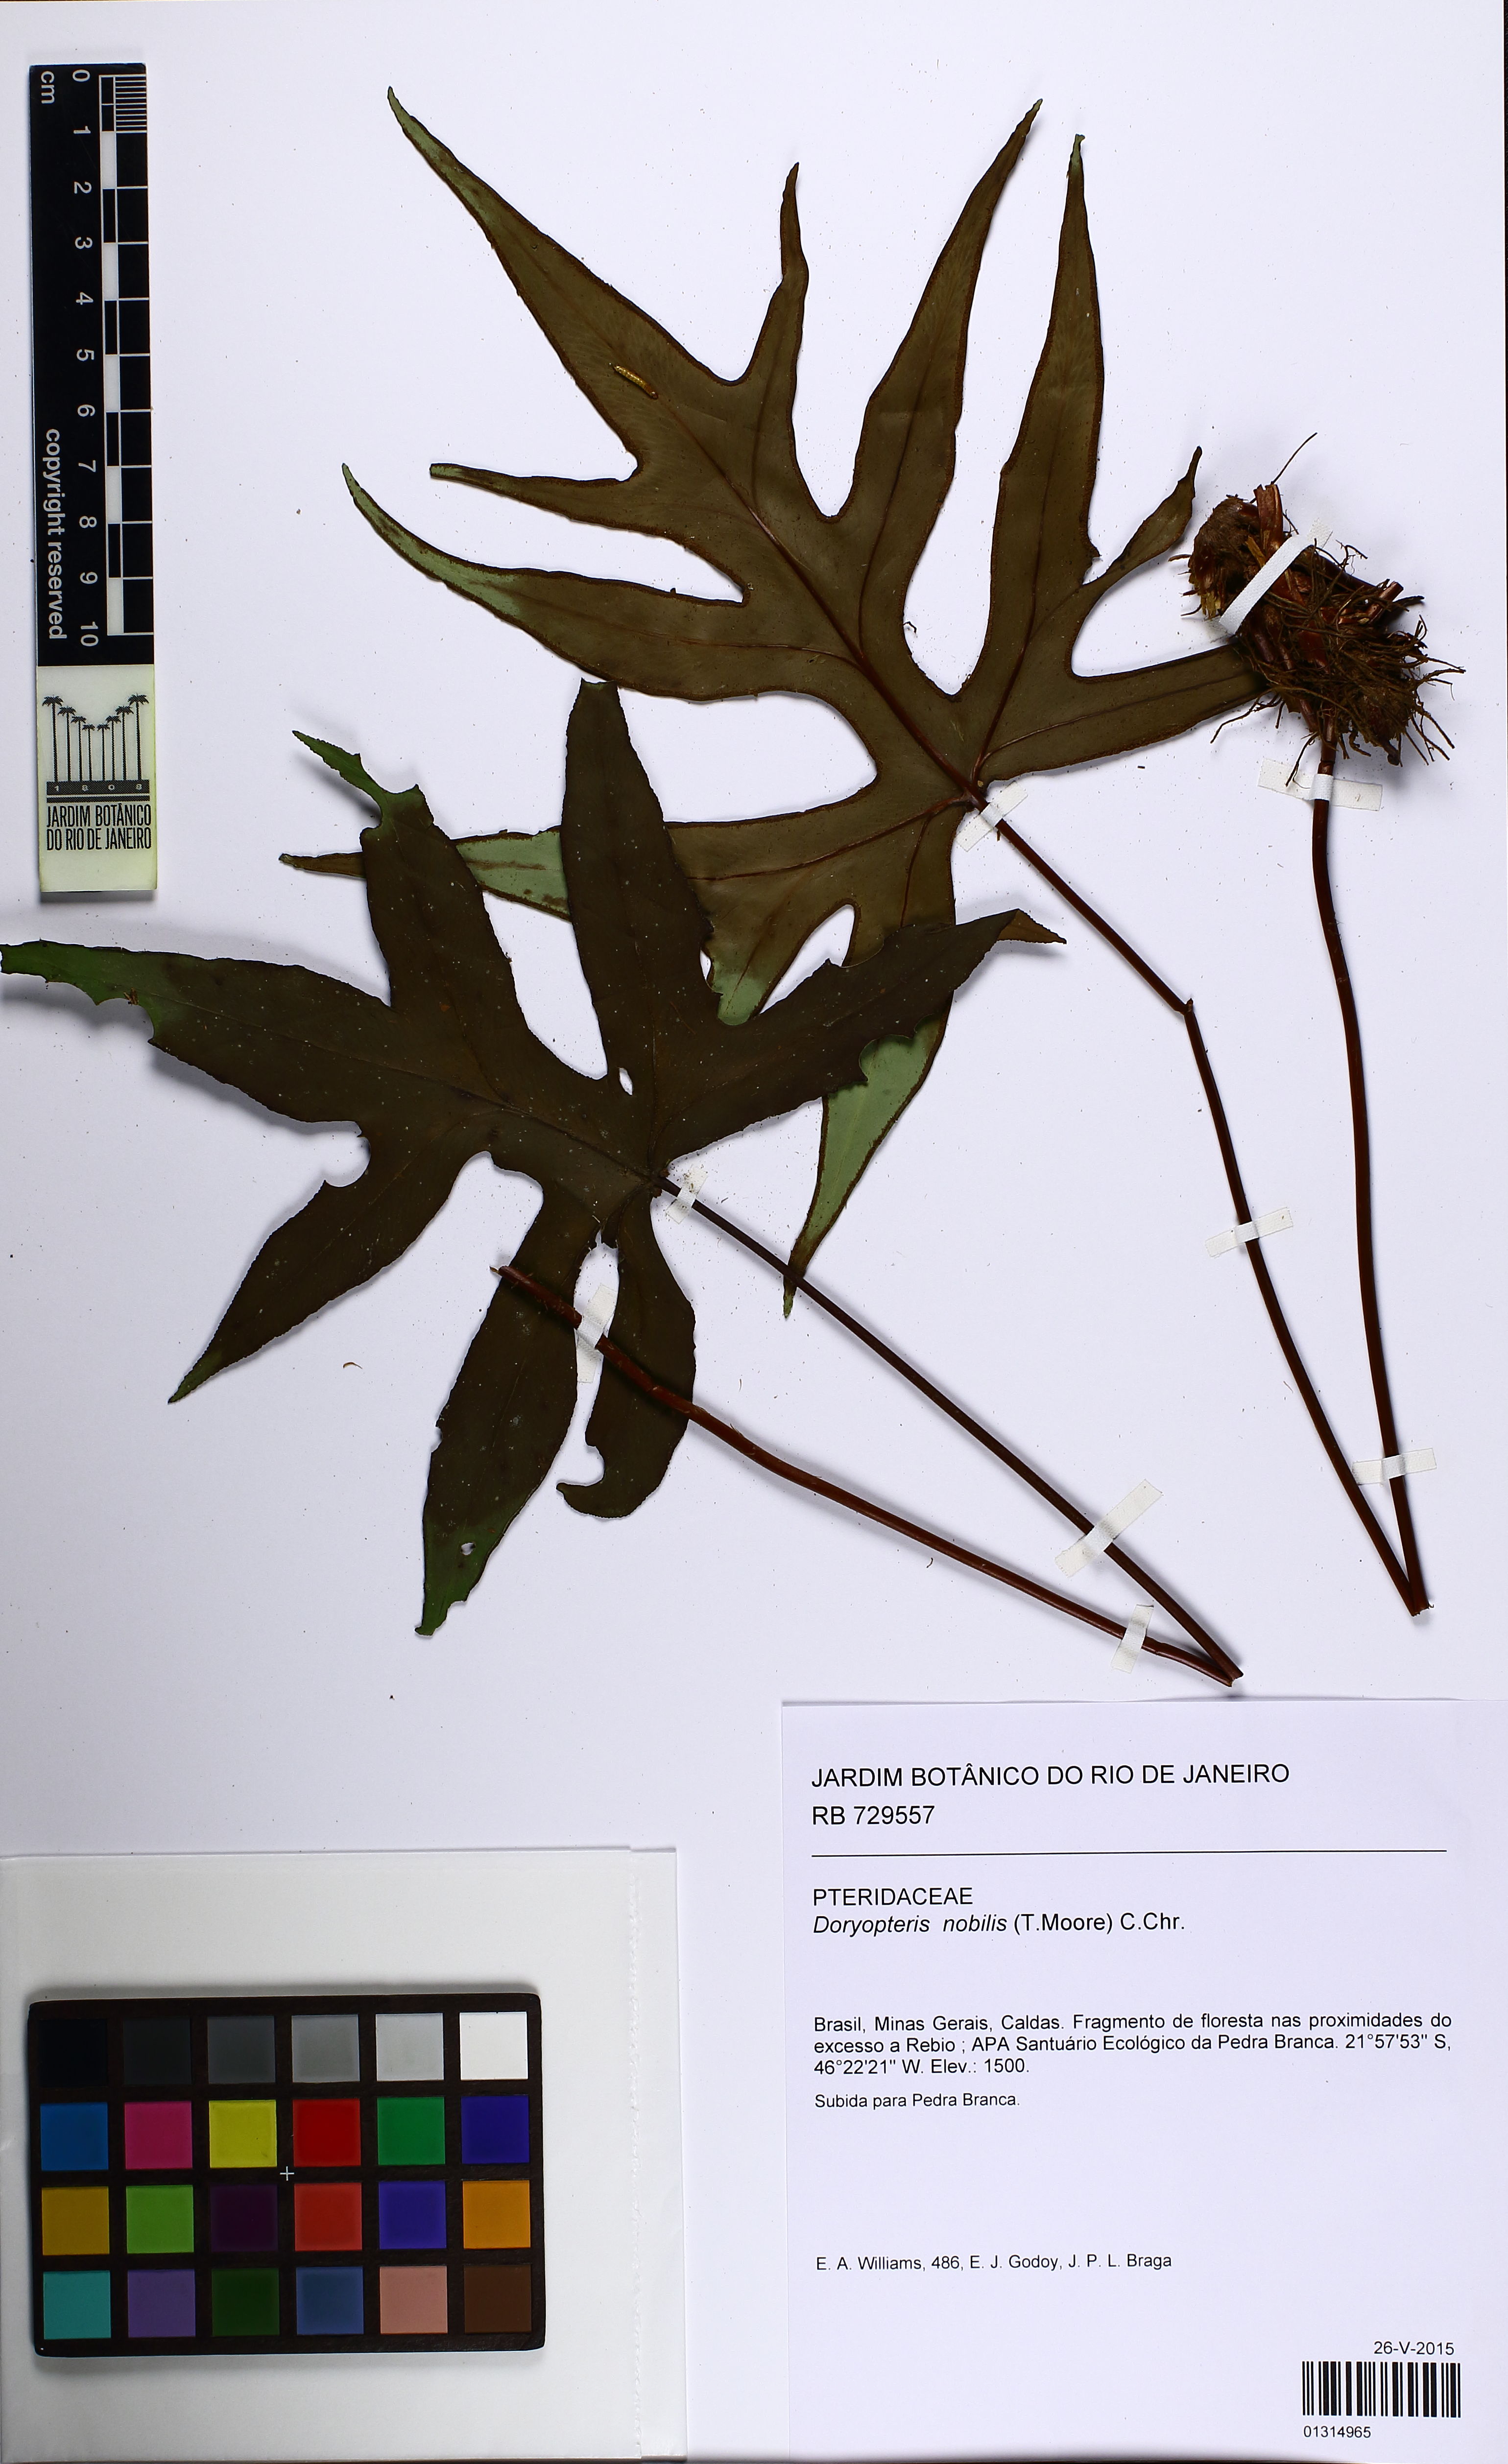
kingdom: Plantae
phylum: Tracheophyta
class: Polypodiopsida
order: Polypodiales
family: Pteridaceae
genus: Hemionitis
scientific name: Hemionitis Doryopteris patula
